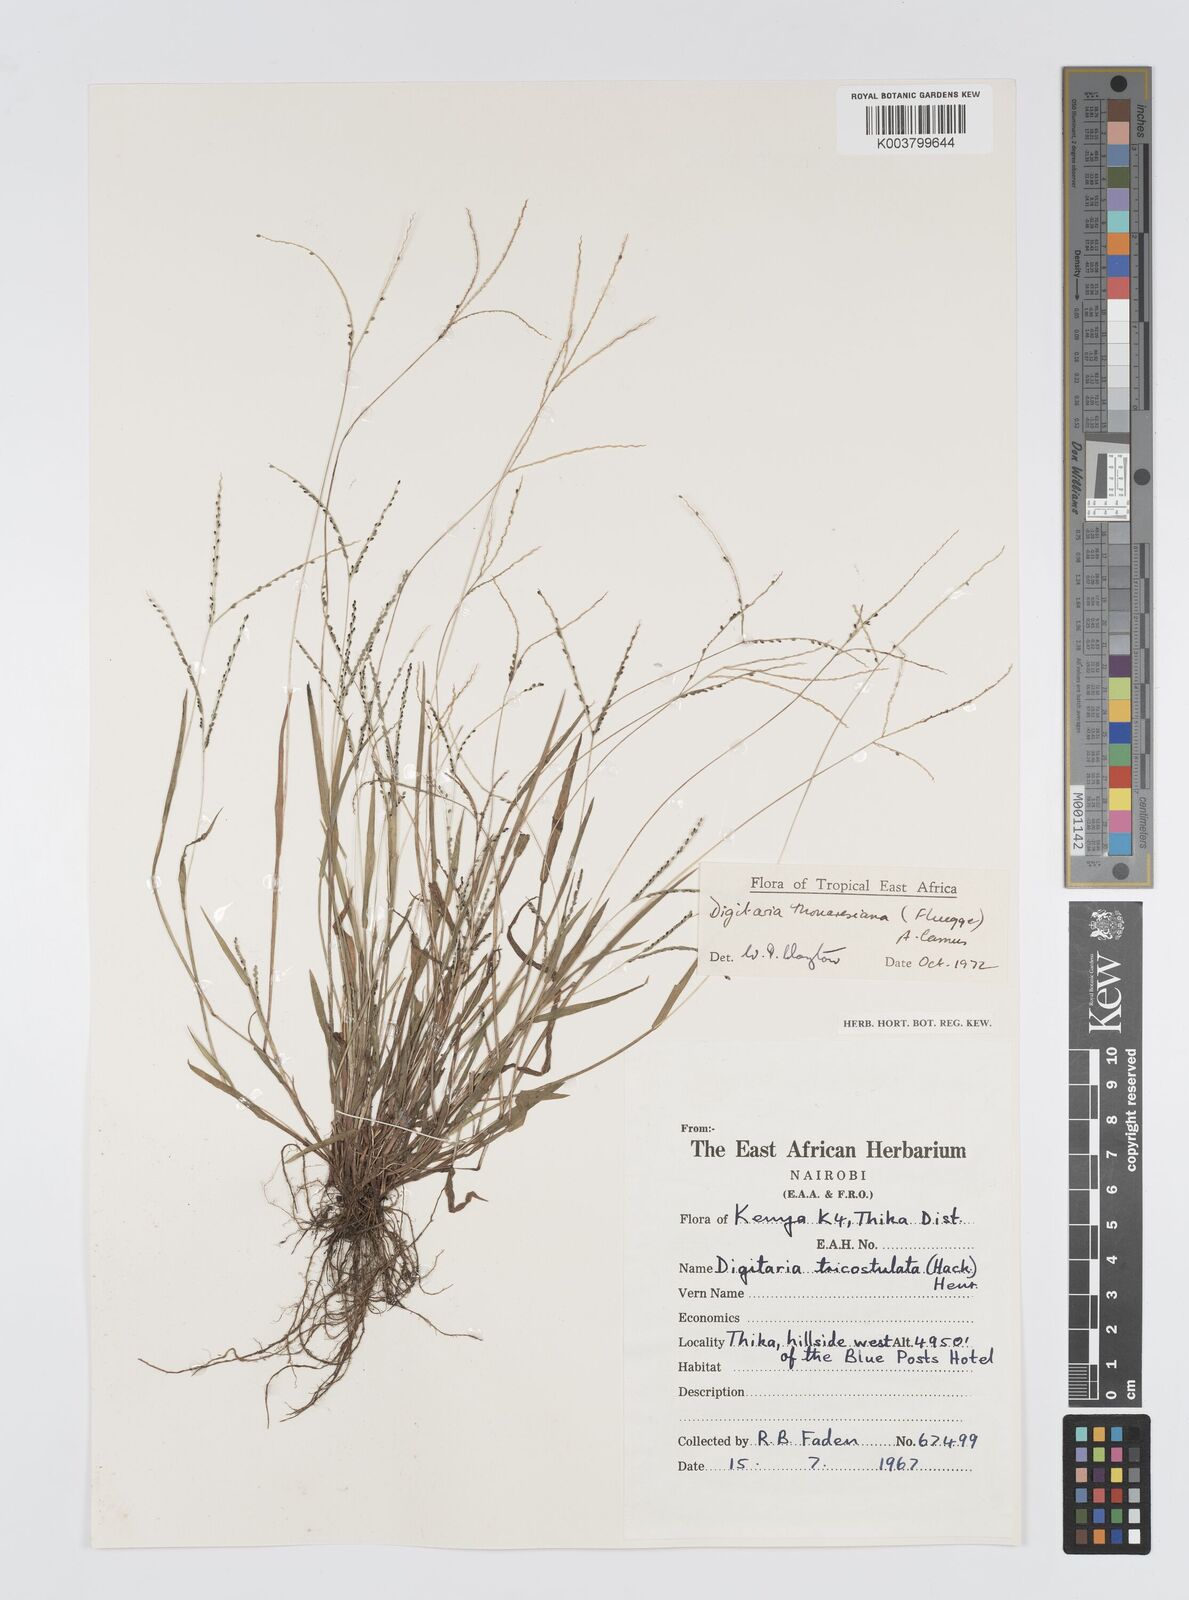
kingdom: Plantae
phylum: Tracheophyta
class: Liliopsida
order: Poales
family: Poaceae
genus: Digitaria
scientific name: Digitaria thouarsiana
